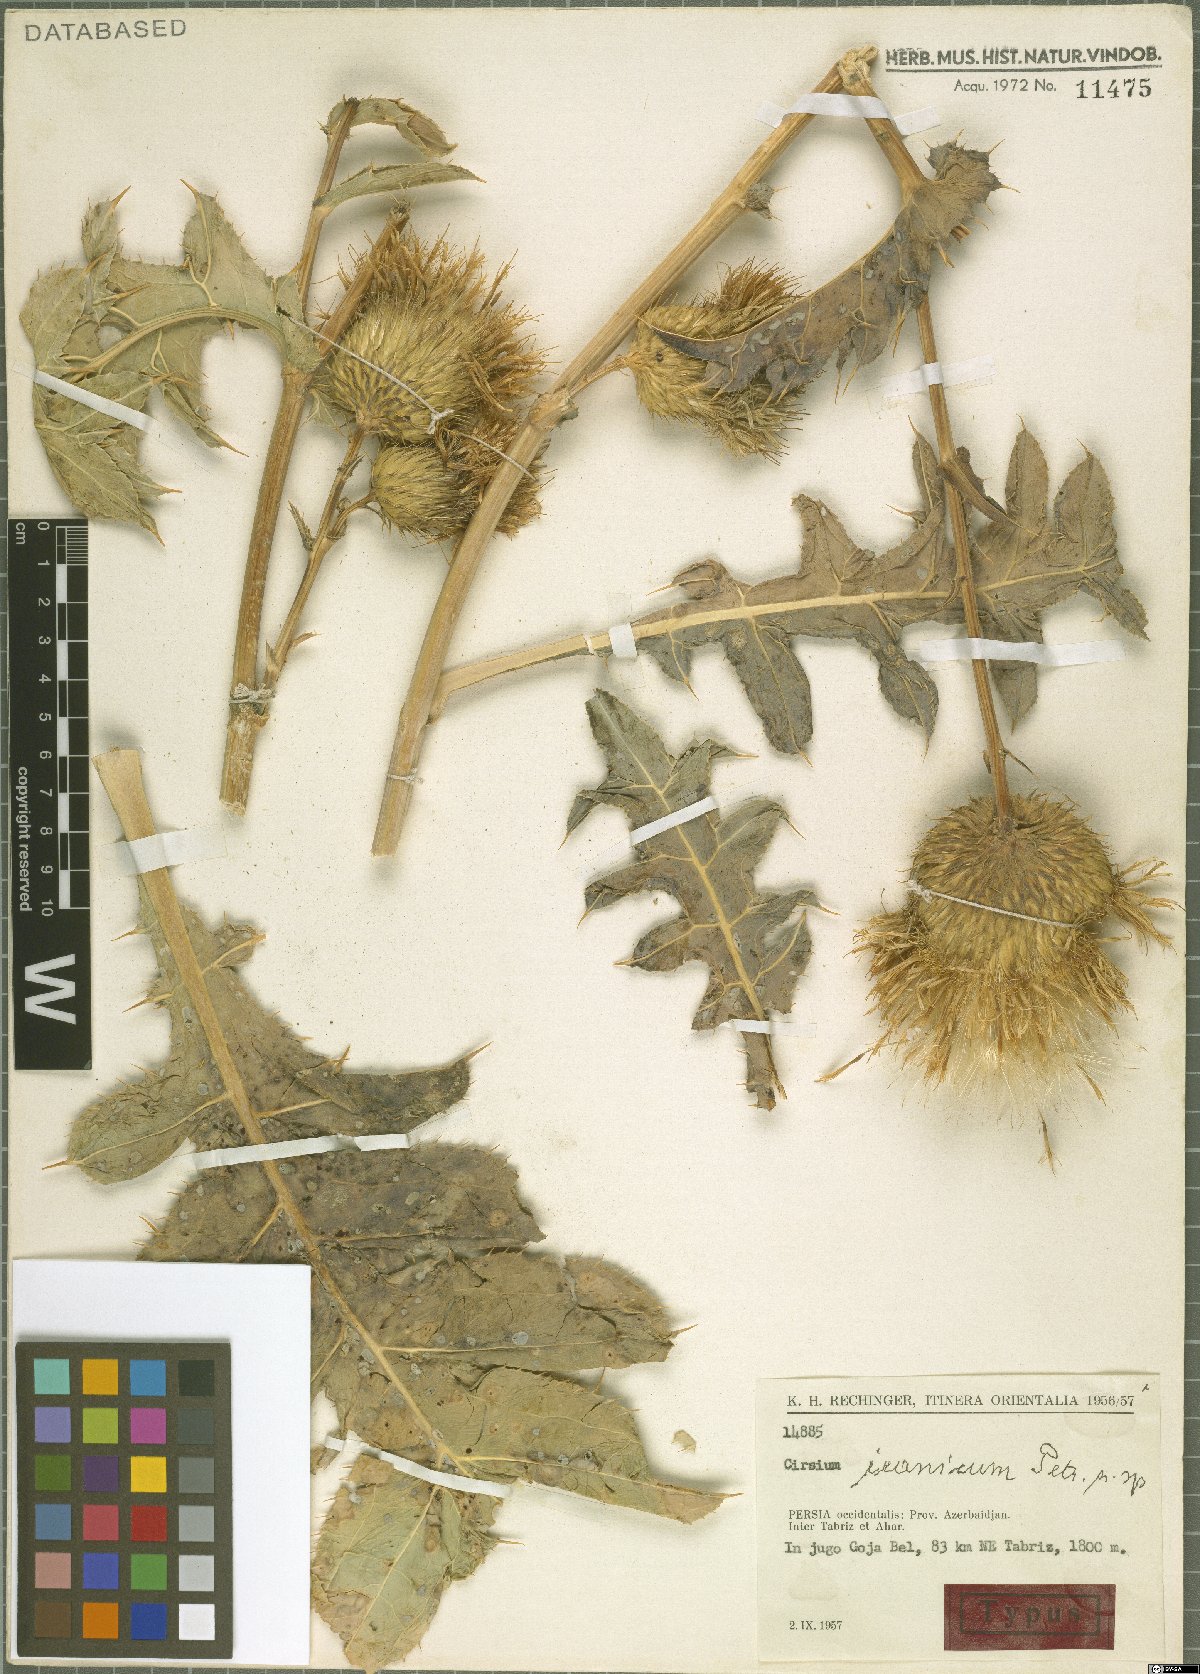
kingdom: Plantae
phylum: Tracheophyta
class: Magnoliopsida
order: Asterales
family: Asteraceae
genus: Lophiolepis
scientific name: Lophiolepis iranica
